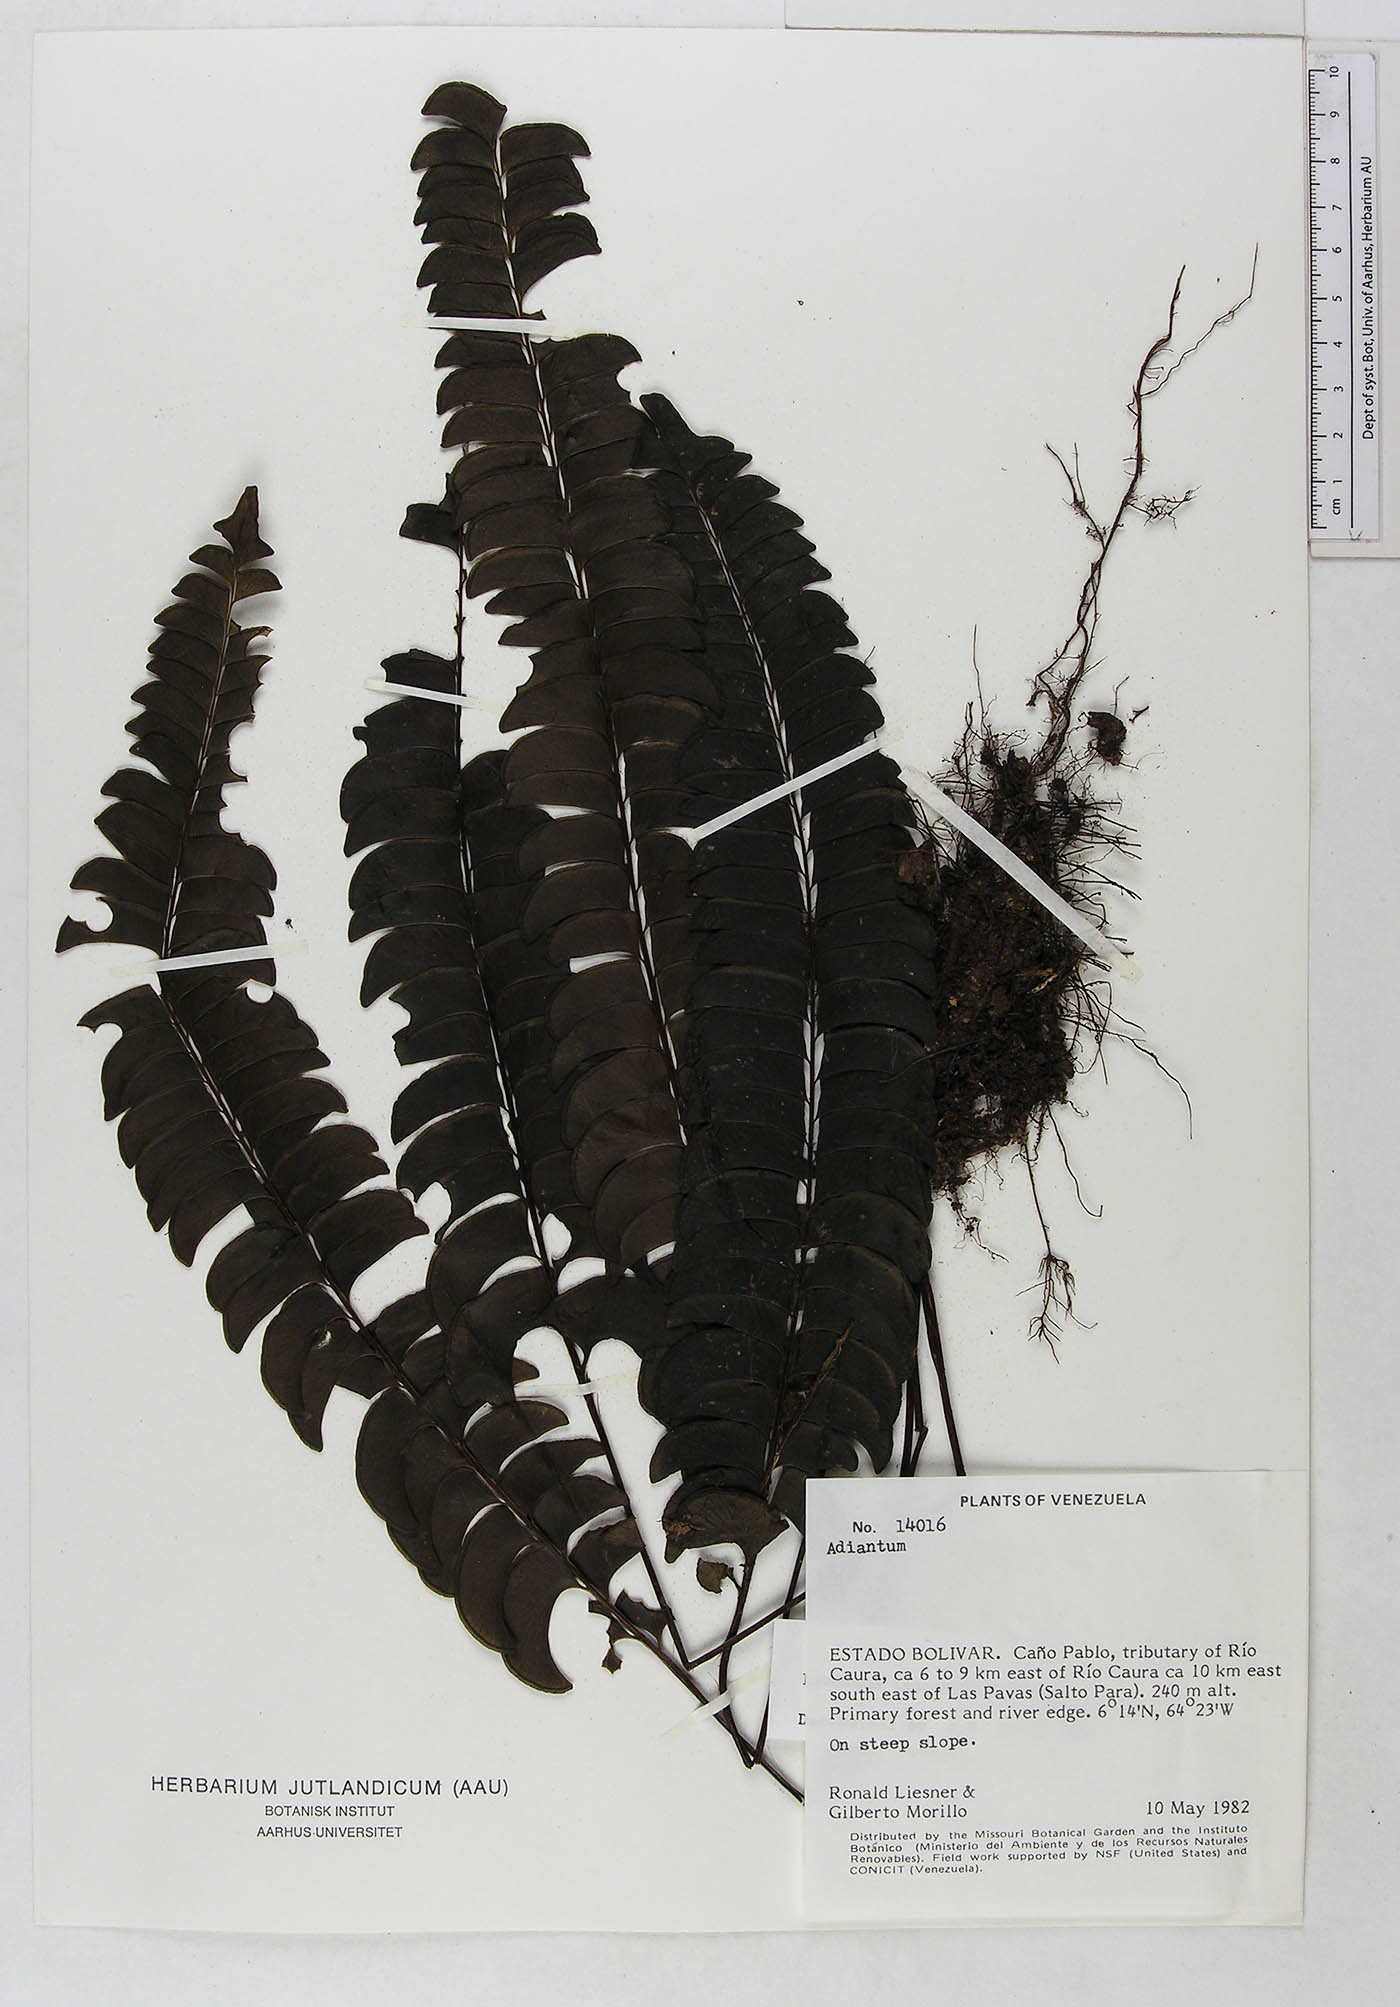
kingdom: Plantae
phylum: Tracheophyta
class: Polypodiopsida
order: Polypodiales
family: Dennstaedtiaceae
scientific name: Dennstaedtiaceae
